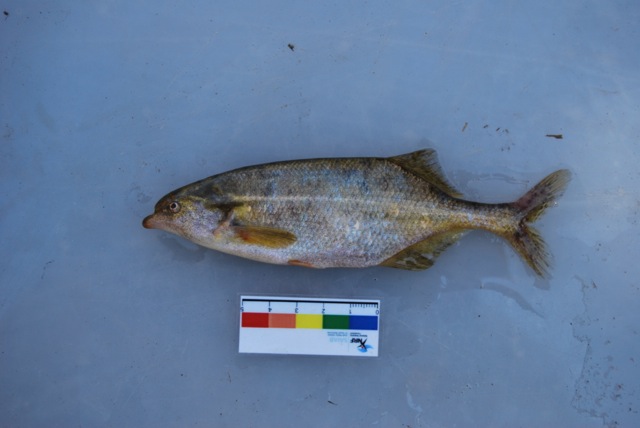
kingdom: Animalia
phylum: Chordata
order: Osteoglossiformes
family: Mormyridae
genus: Marcusenius
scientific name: Marcusenius altisambesi
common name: Bulldog
